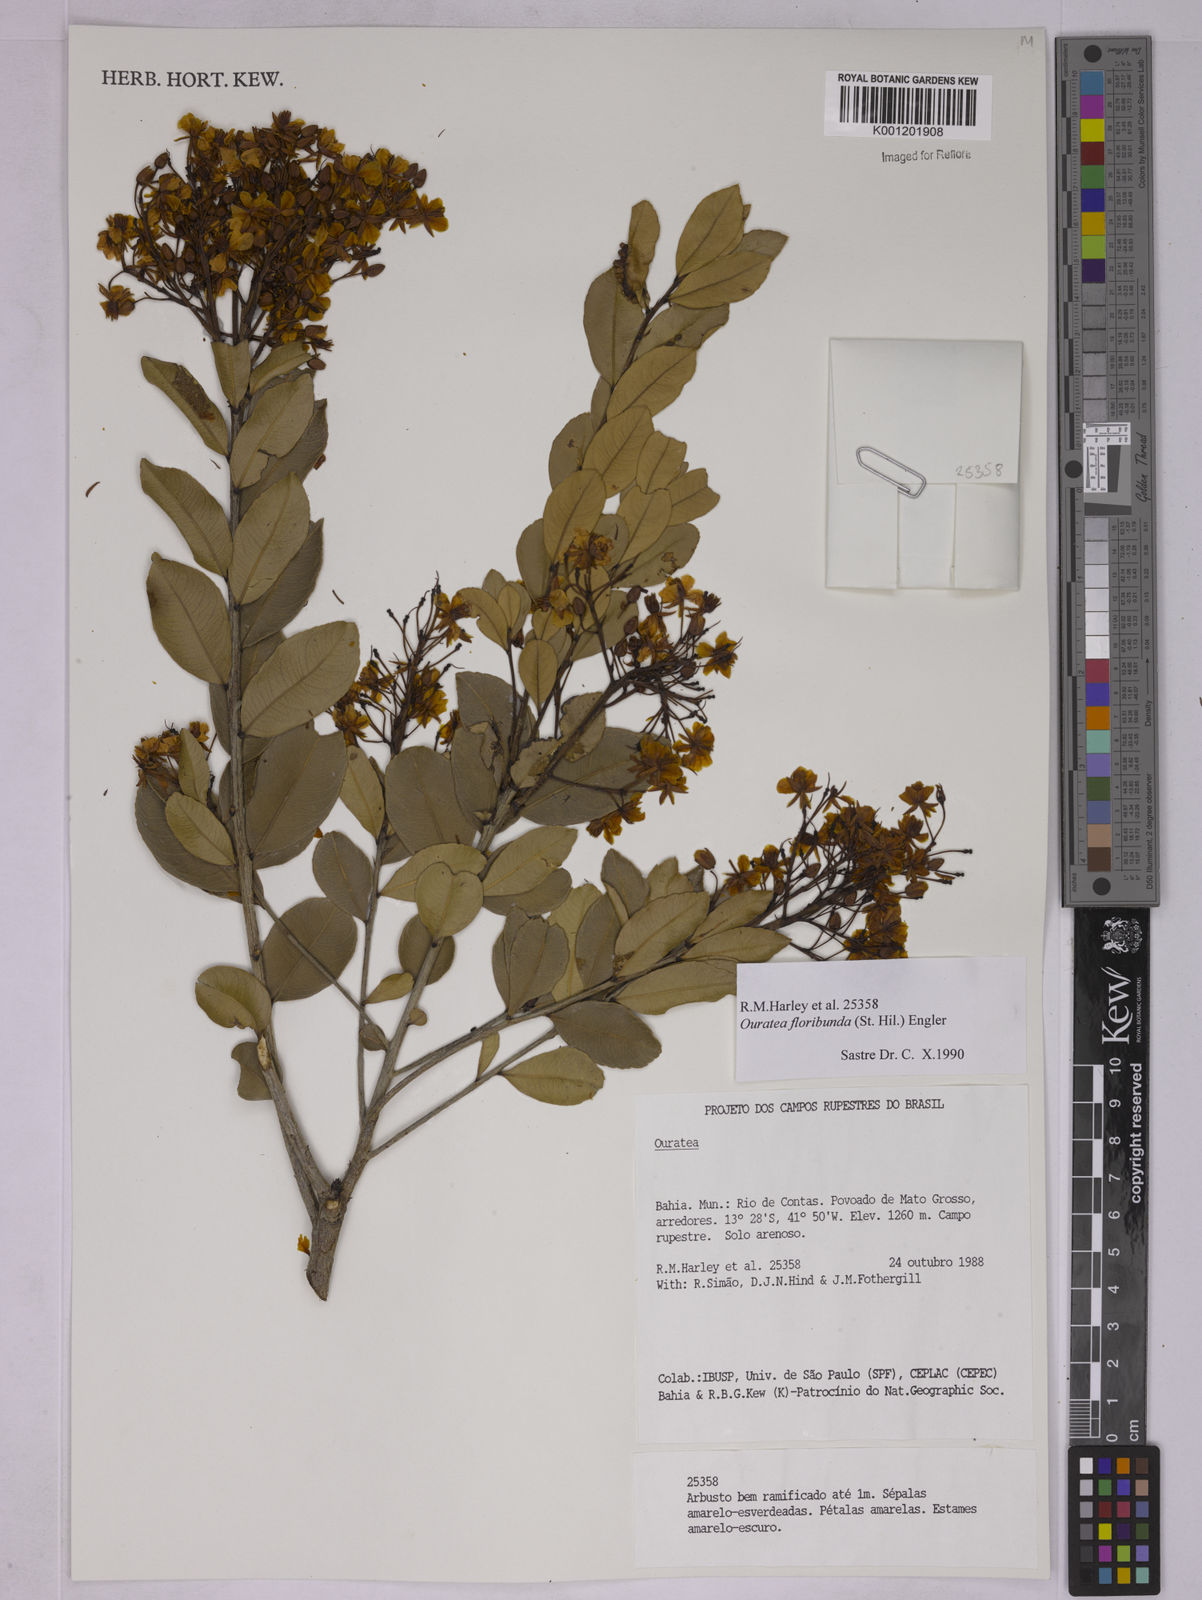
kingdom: Plantae
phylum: Tracheophyta
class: Magnoliopsida
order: Malpighiales
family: Ochnaceae
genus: Ouratea
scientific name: Ouratea floribunda
